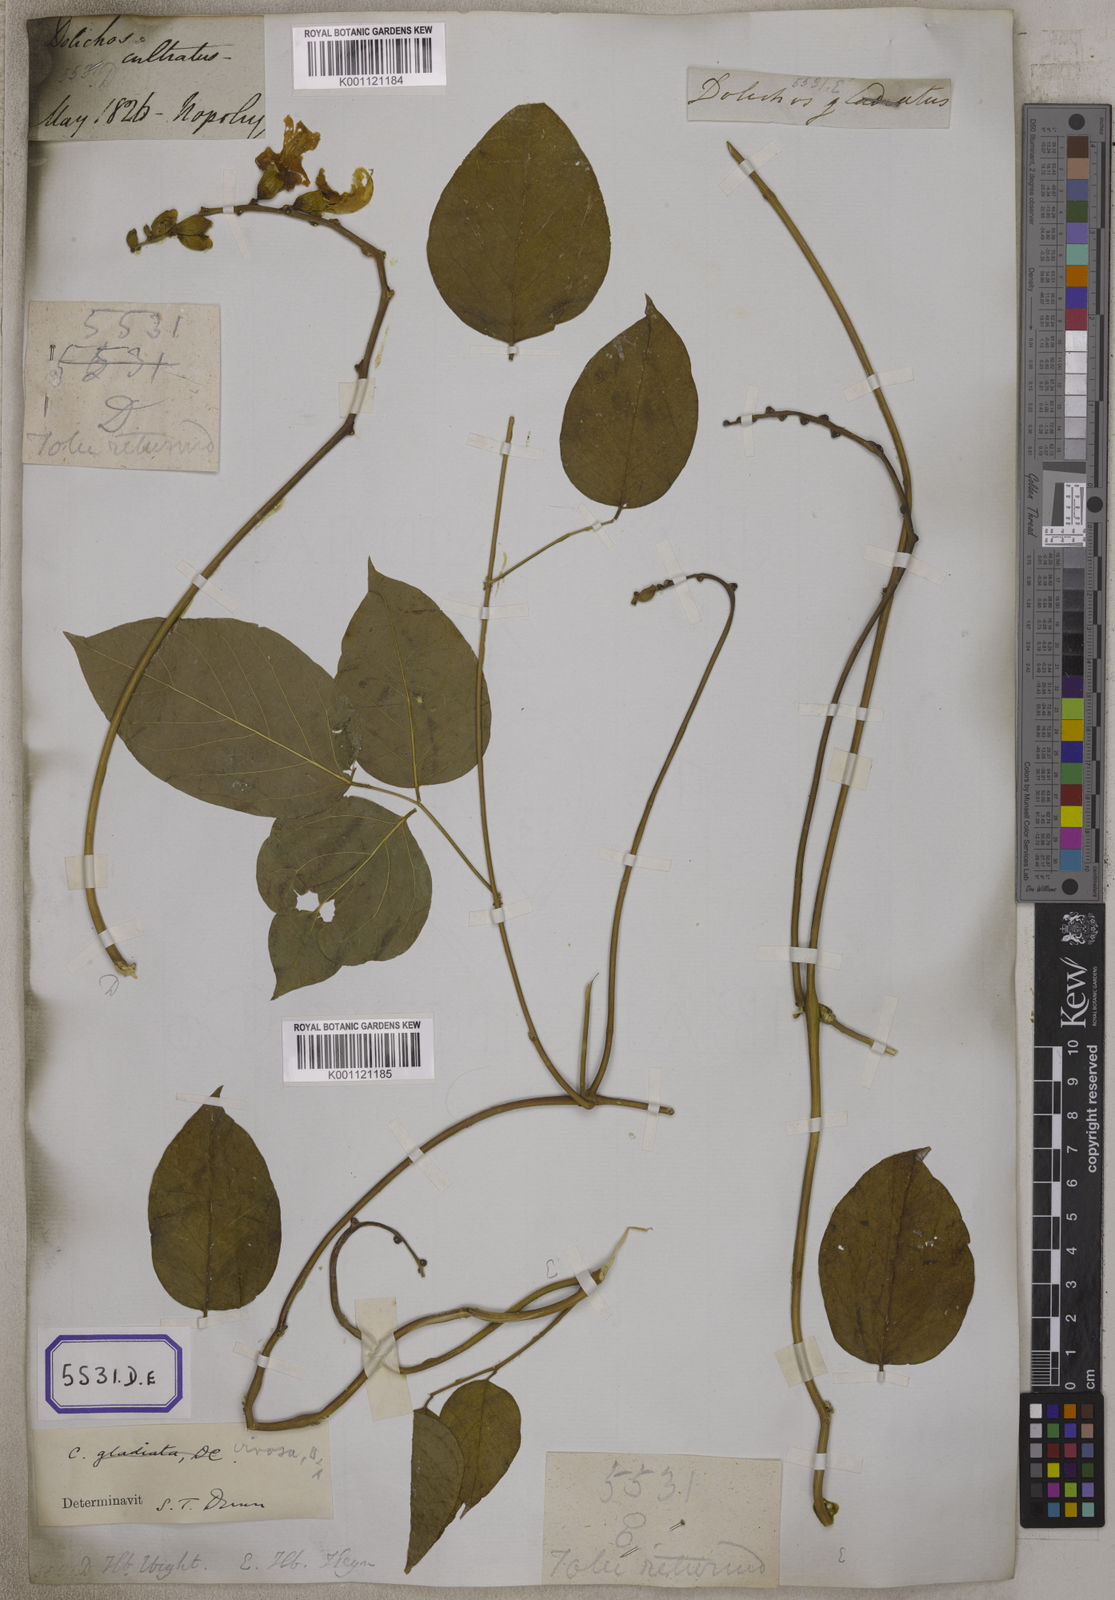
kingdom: Plantae
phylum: Tracheophyta
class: Magnoliopsida
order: Fabales
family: Fabaceae
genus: Canavalia
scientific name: Canavalia gladiata
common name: Scimitar-bean
